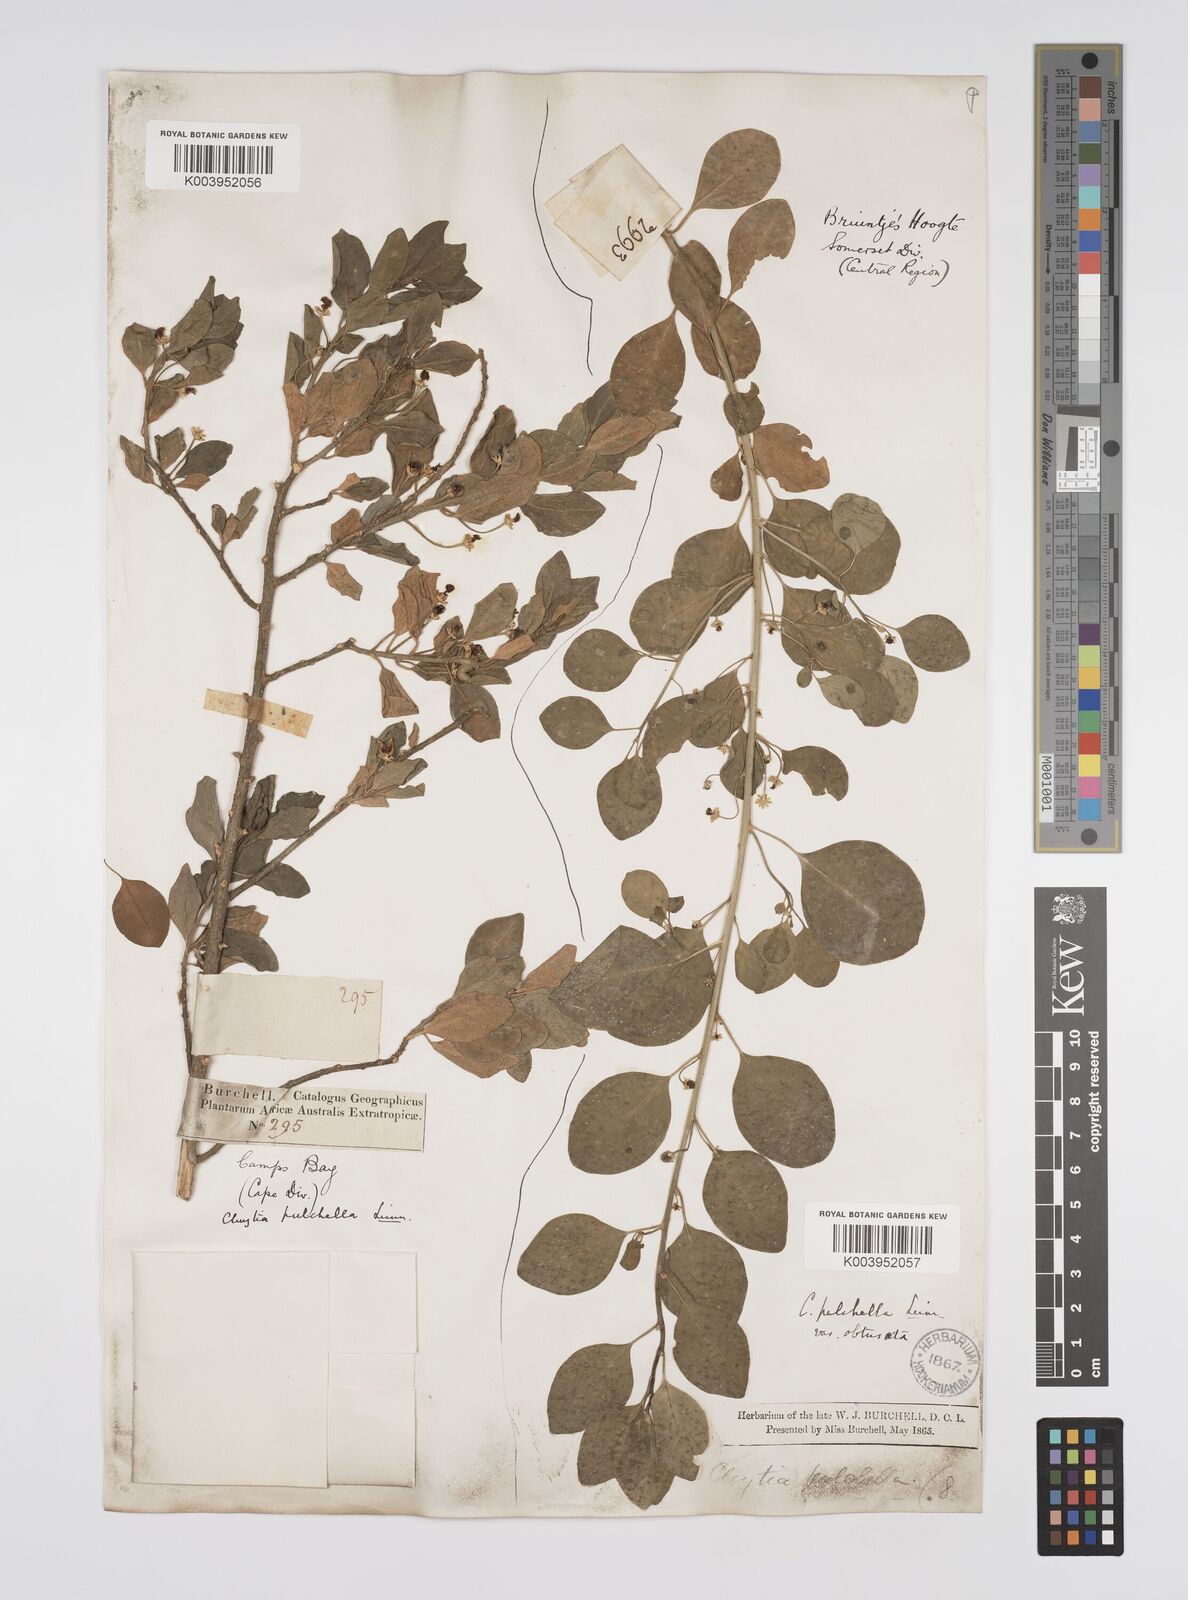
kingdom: Plantae
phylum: Tracheophyta
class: Magnoliopsida
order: Malpighiales
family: Peraceae
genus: Clutia
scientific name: Clutia pulchella
